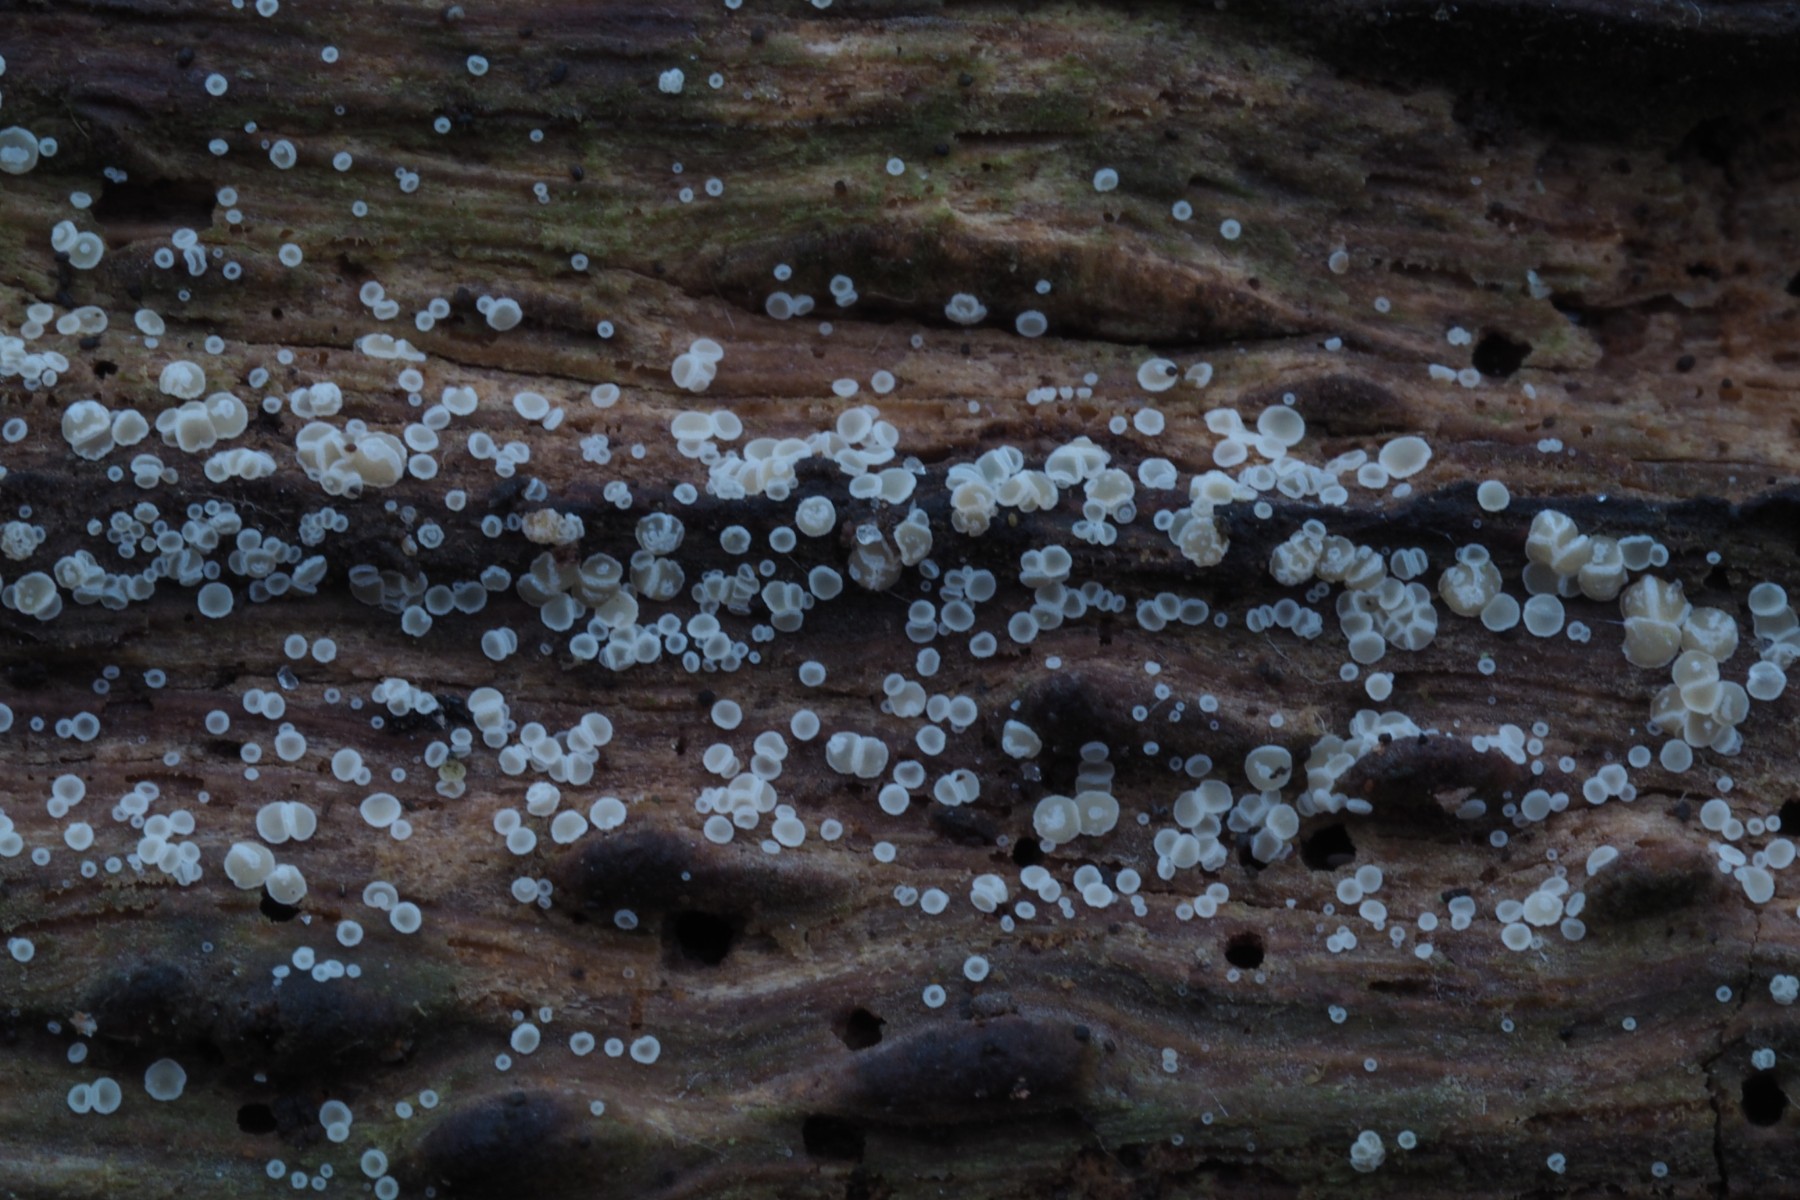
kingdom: Fungi
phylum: Ascomycota
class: Leotiomycetes
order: Helotiales
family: Hyaloscyphaceae
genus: Hyaloscypha
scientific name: Hyaloscypha daedaleae
